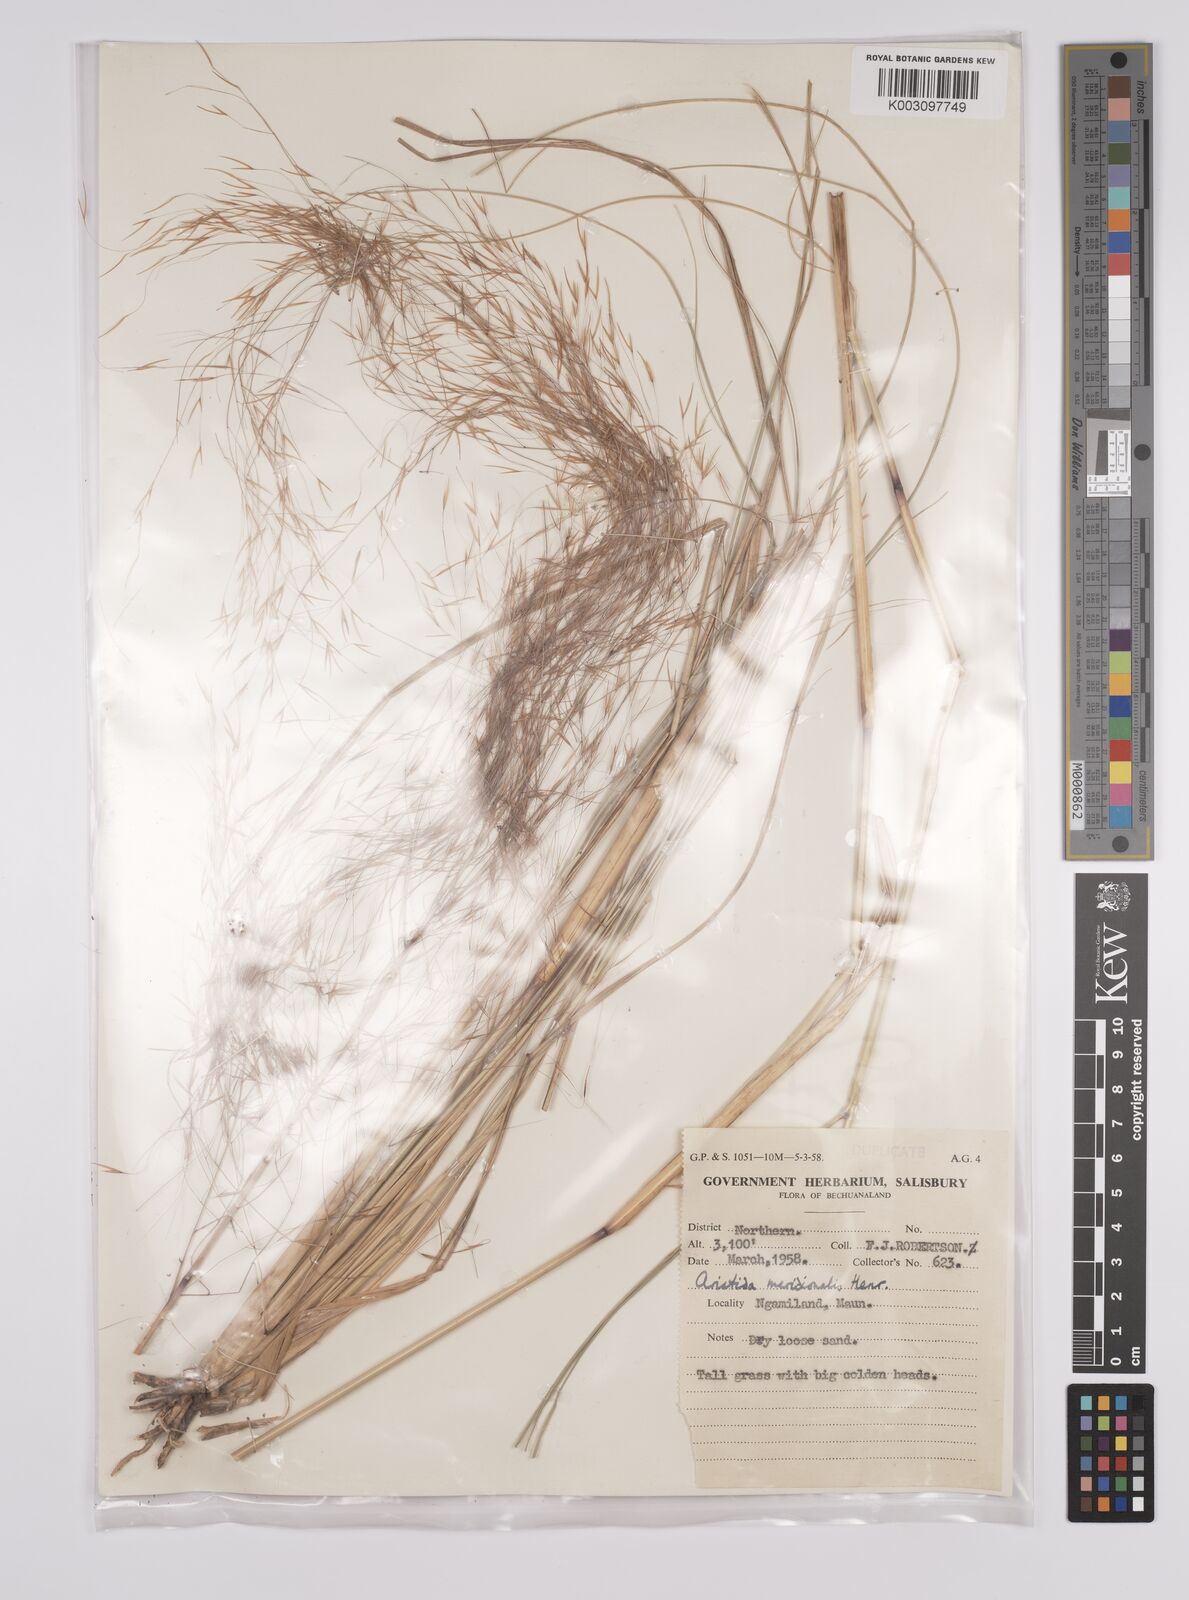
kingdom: Plantae
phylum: Tracheophyta
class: Liliopsida
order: Poales
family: Poaceae
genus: Aristida
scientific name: Aristida meridionalis
